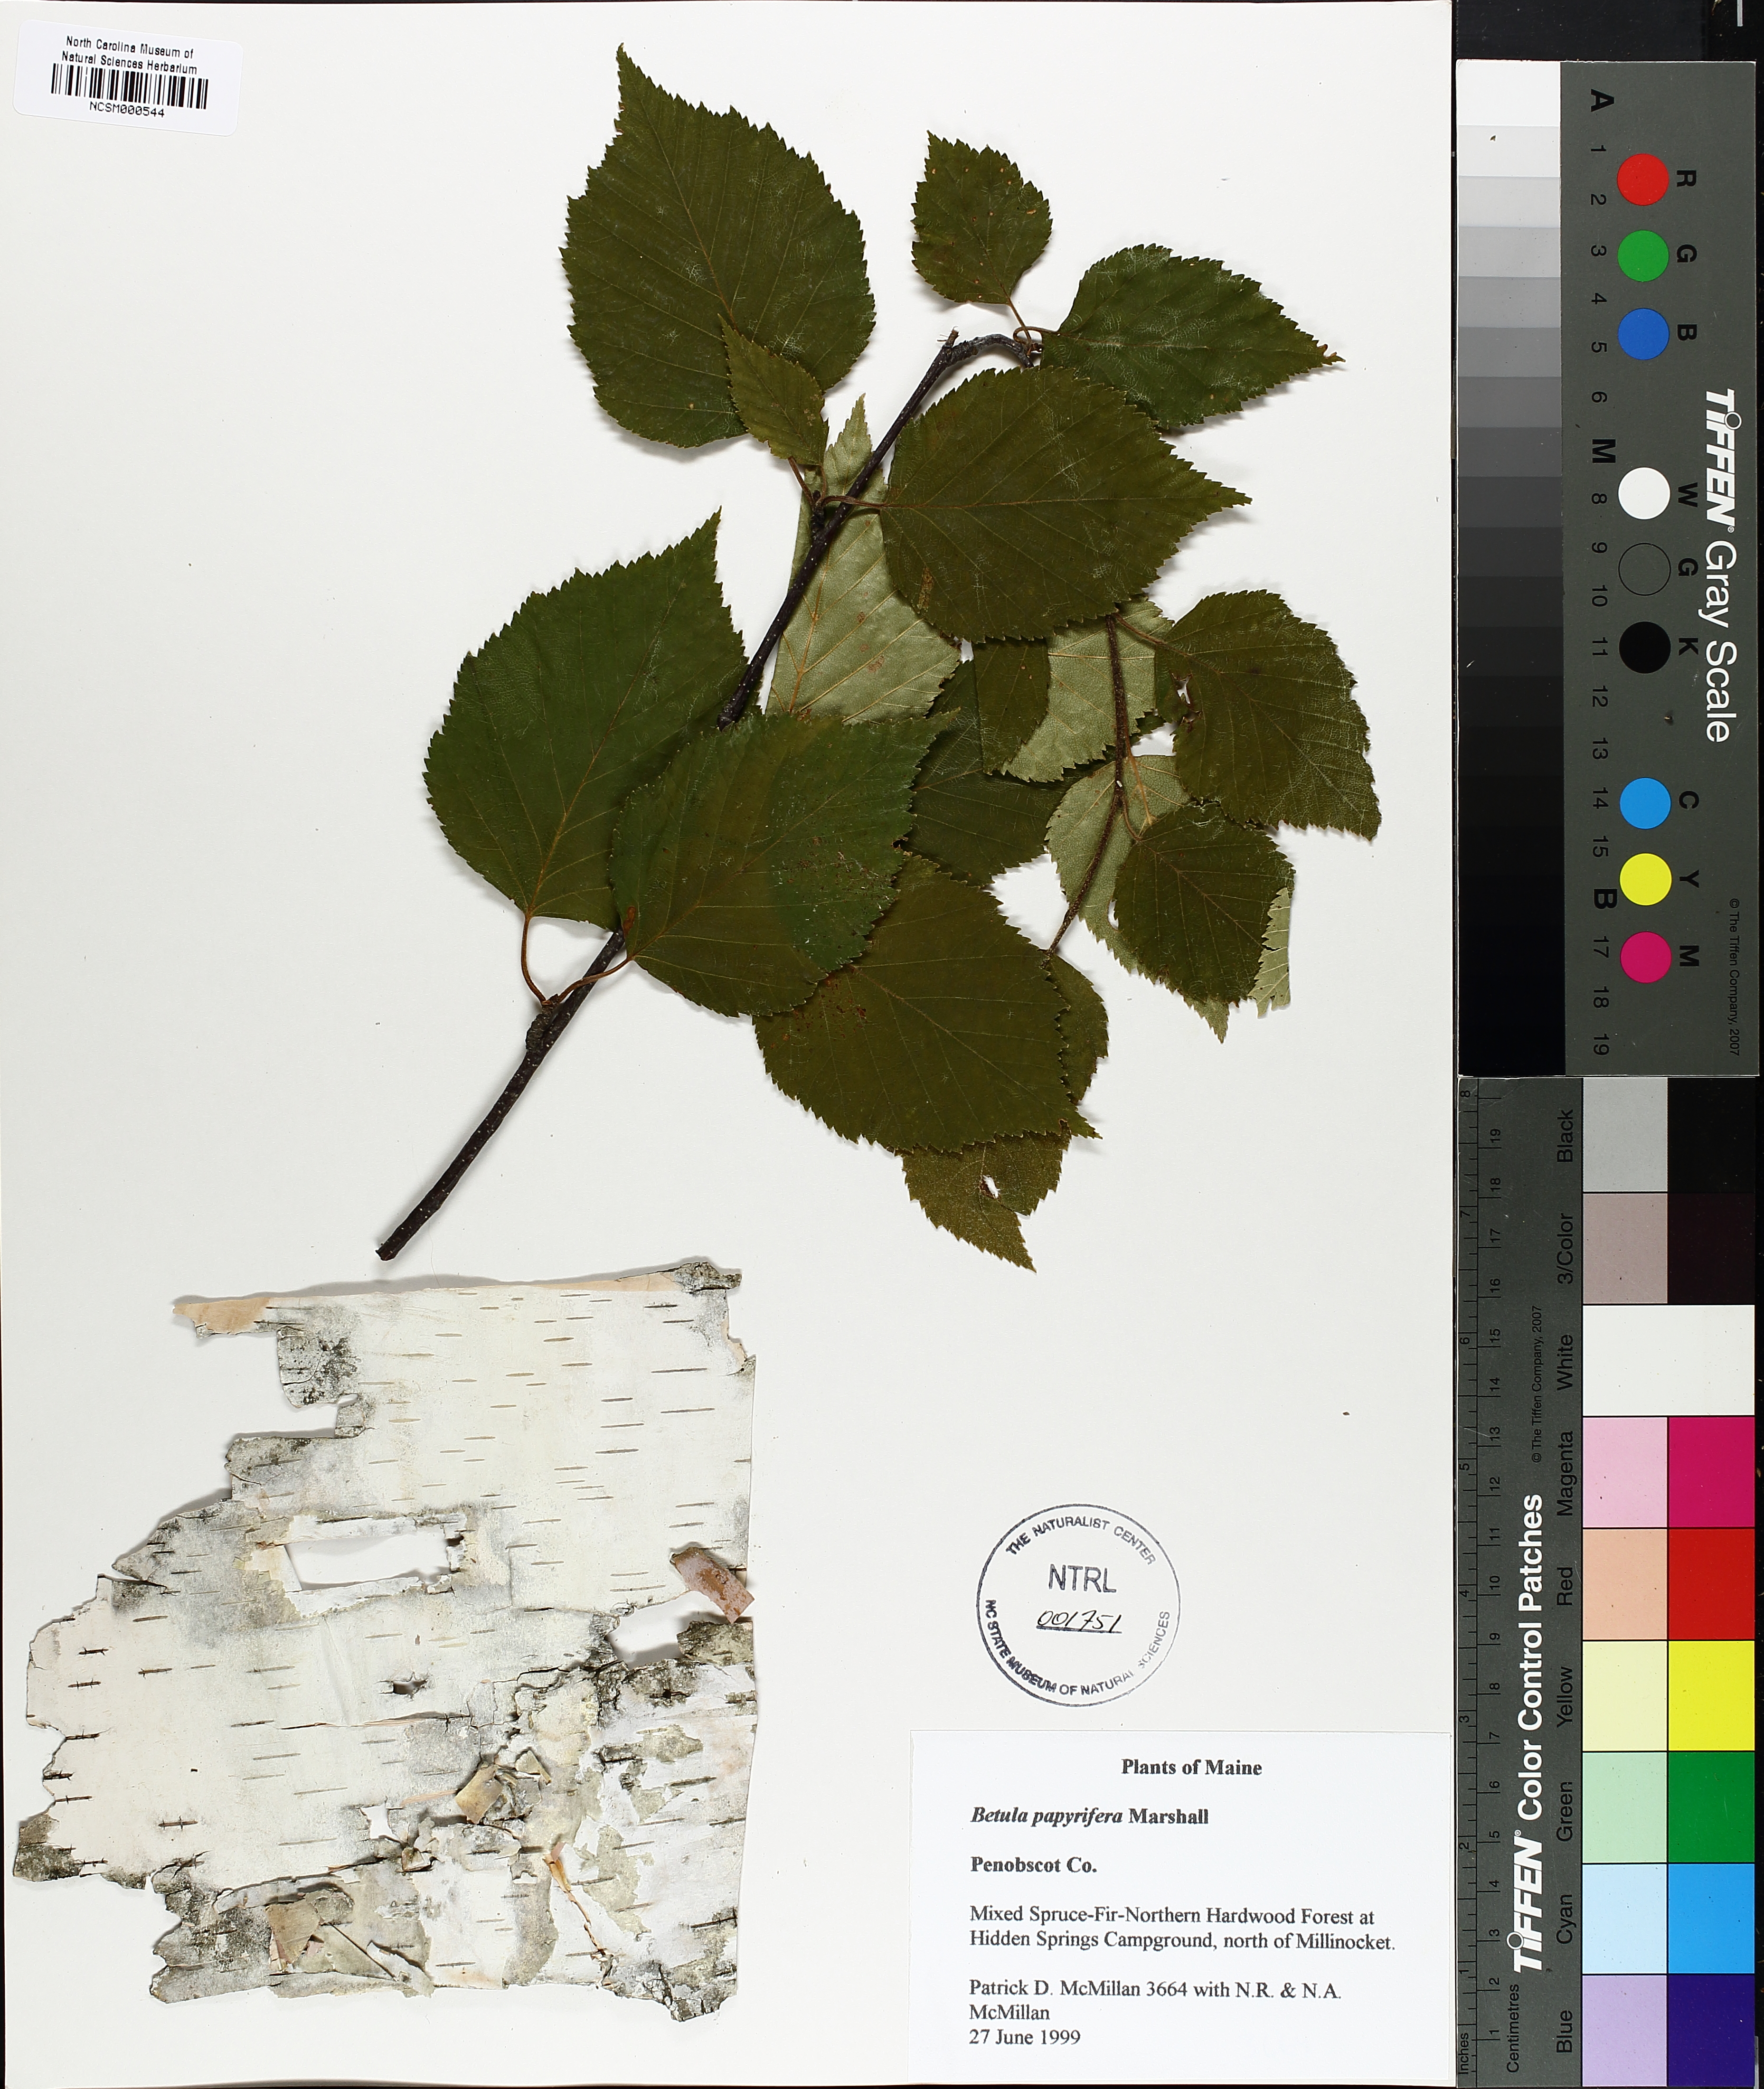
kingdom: Plantae
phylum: Tracheophyta
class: Magnoliopsida
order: Fagales
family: Betulaceae
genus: Betula
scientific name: Betula papyrifera
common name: Paper birch
